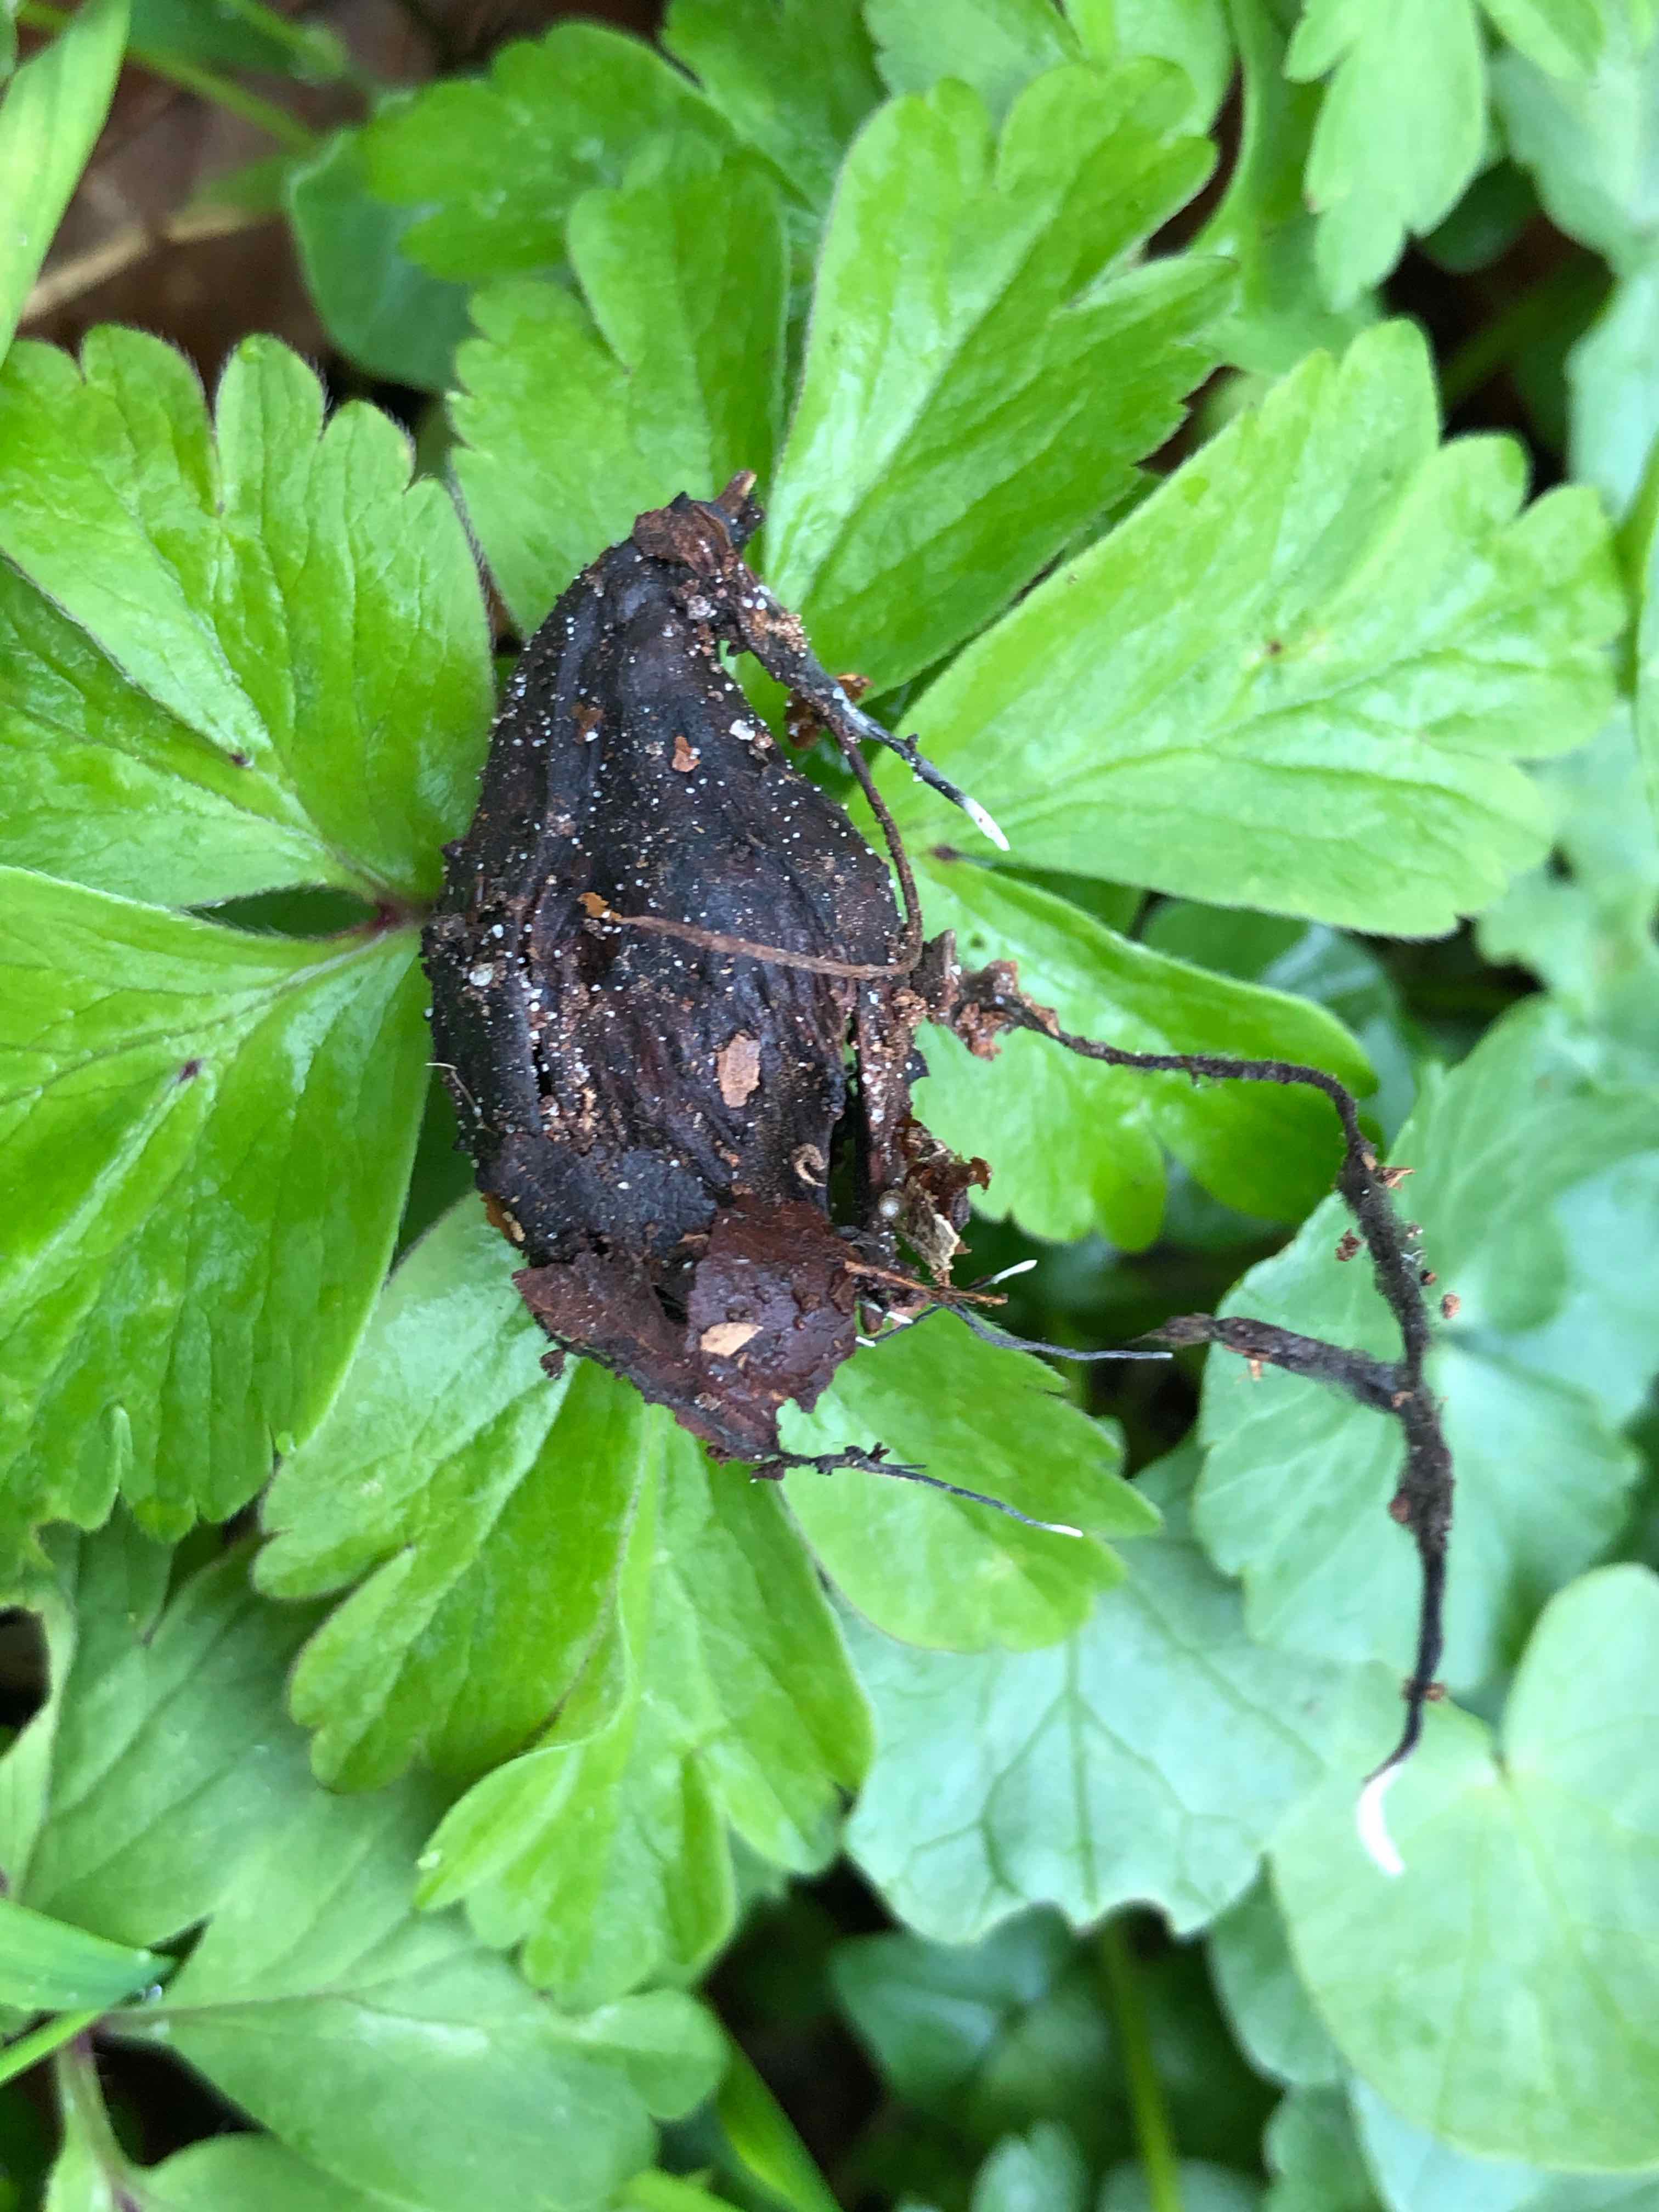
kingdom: Fungi
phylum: Ascomycota
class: Sordariomycetes
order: Xylariales
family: Xylariaceae
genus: Xylaria
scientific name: Xylaria carpophila
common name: bogskål-stødsvamp
